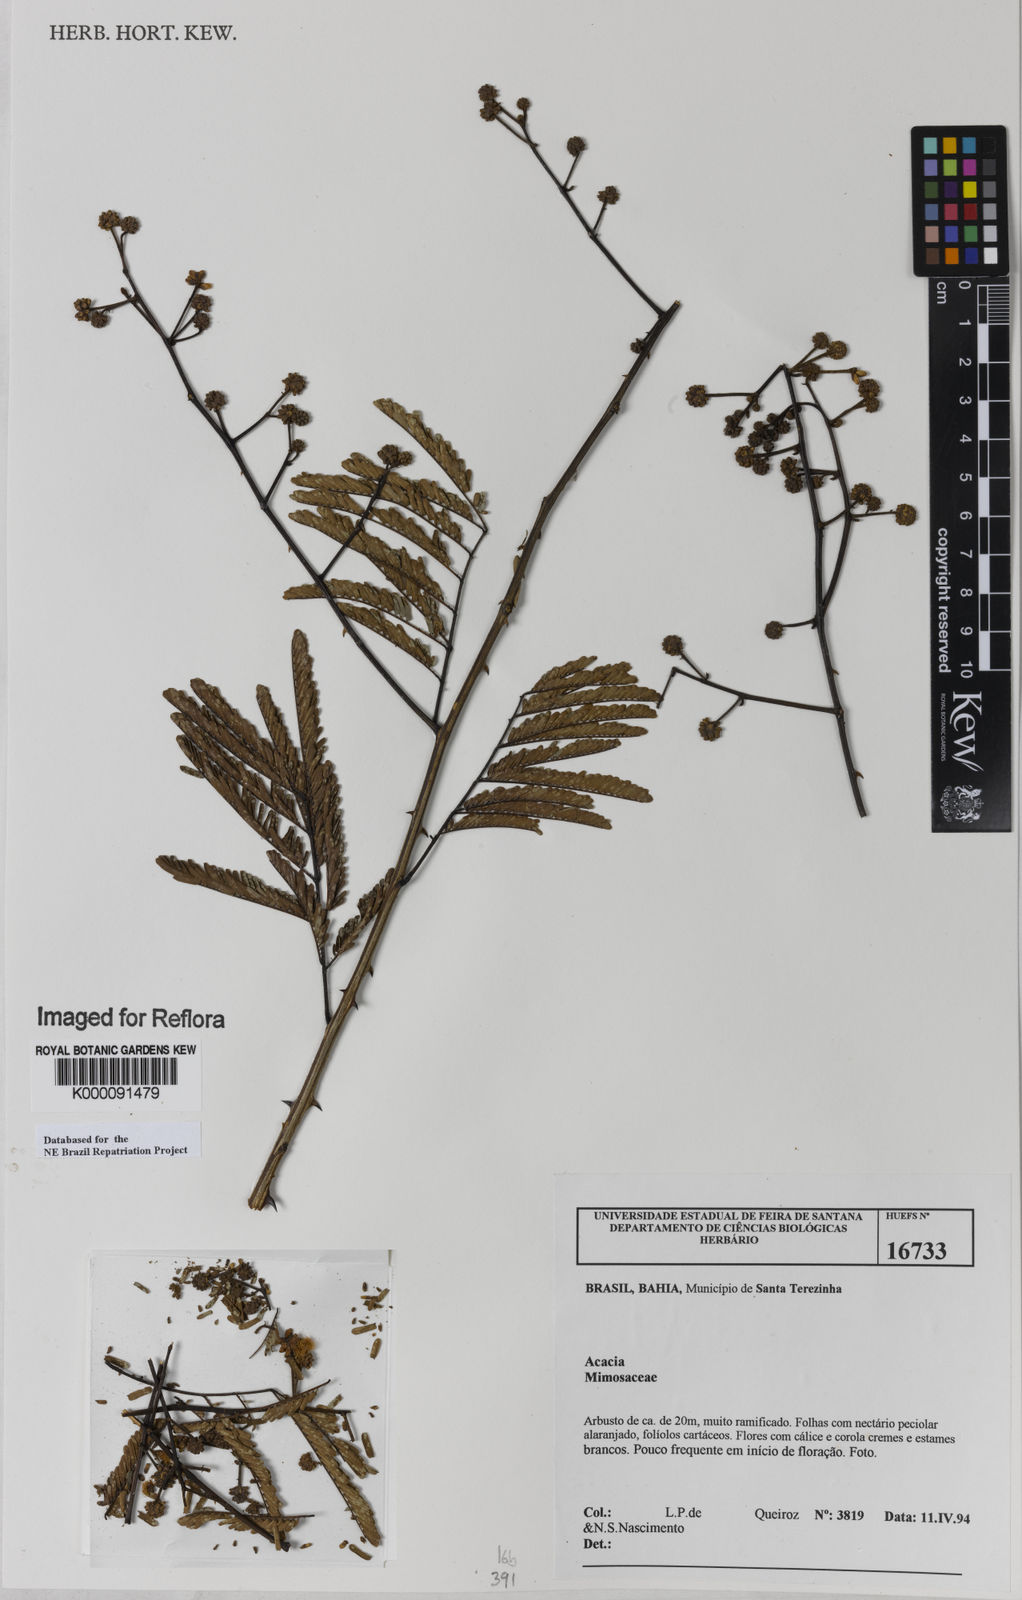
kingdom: Plantae
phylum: Tracheophyta
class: Magnoliopsida
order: Fabales
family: Fabaceae
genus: Acacia
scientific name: Acacia
